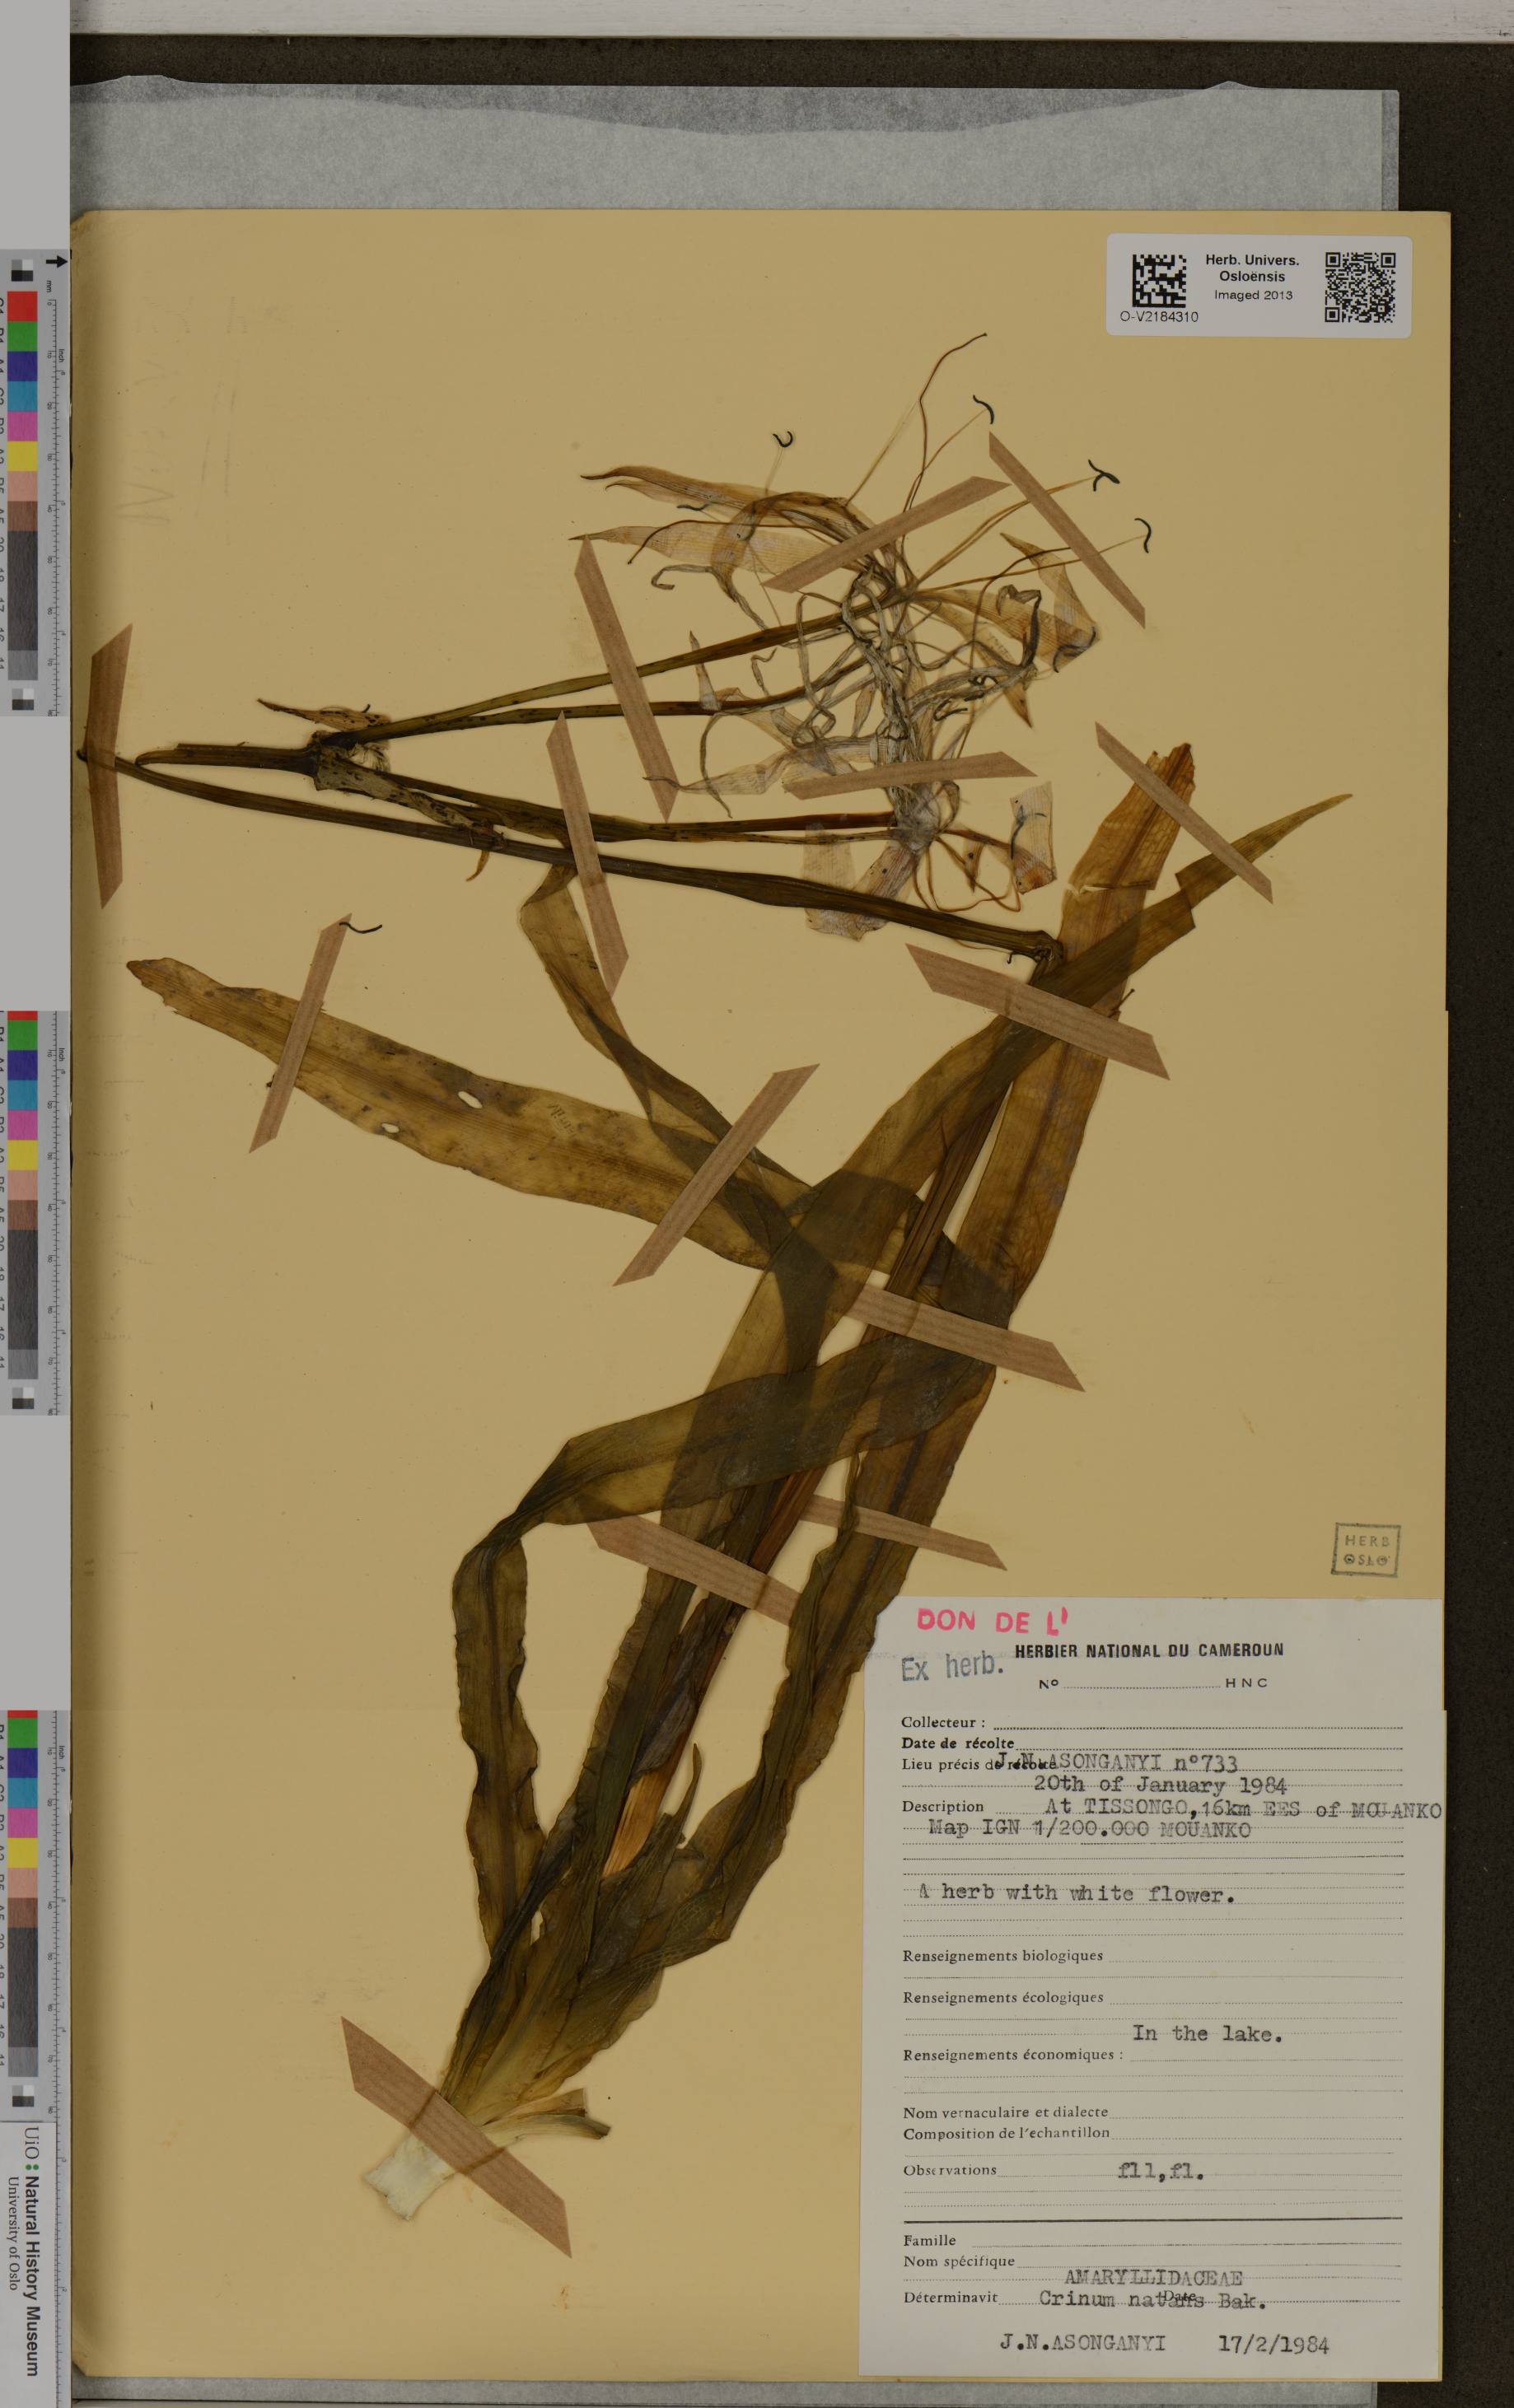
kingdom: Plantae
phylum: Tracheophyta
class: Liliopsida
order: Asparagales
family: Amaryllidaceae
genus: Crinum
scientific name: Crinum natans
